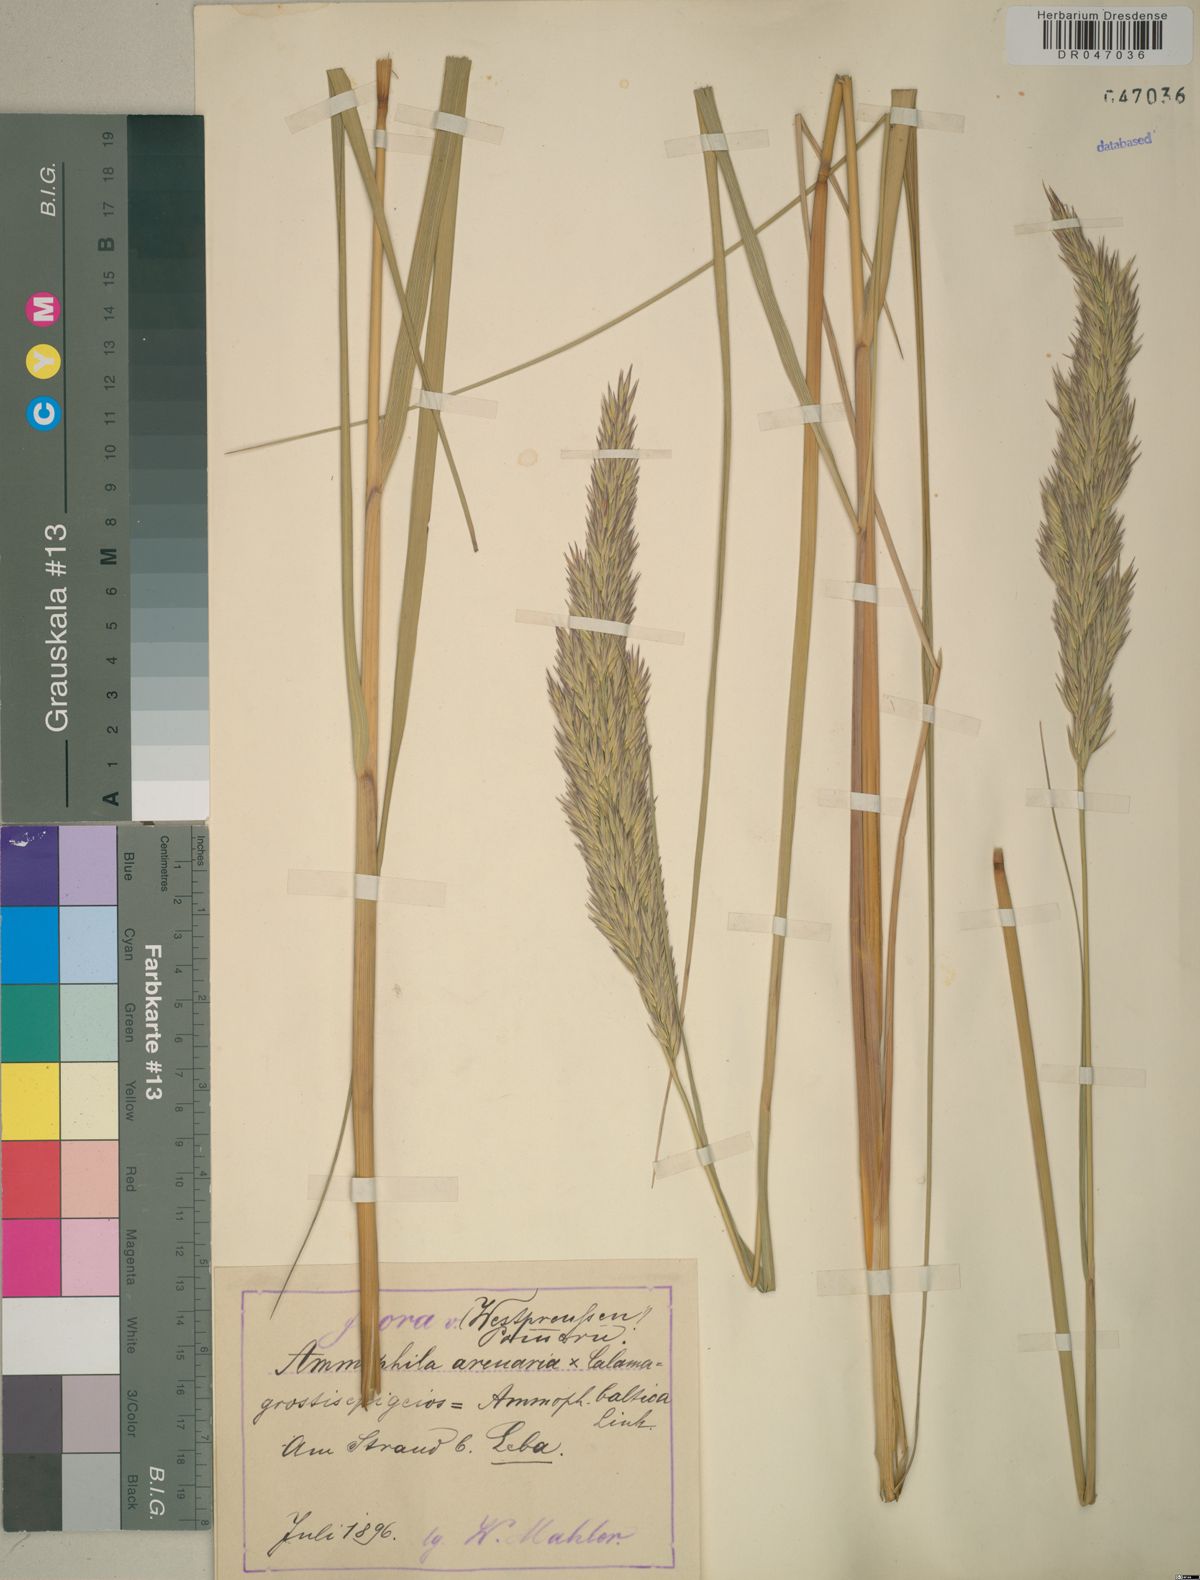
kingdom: Plantae
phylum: Tracheophyta
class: Liliopsida
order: Poales
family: Poaceae
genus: Calamagrostis
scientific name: Calamagrostis arenaria
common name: European beachgrass
